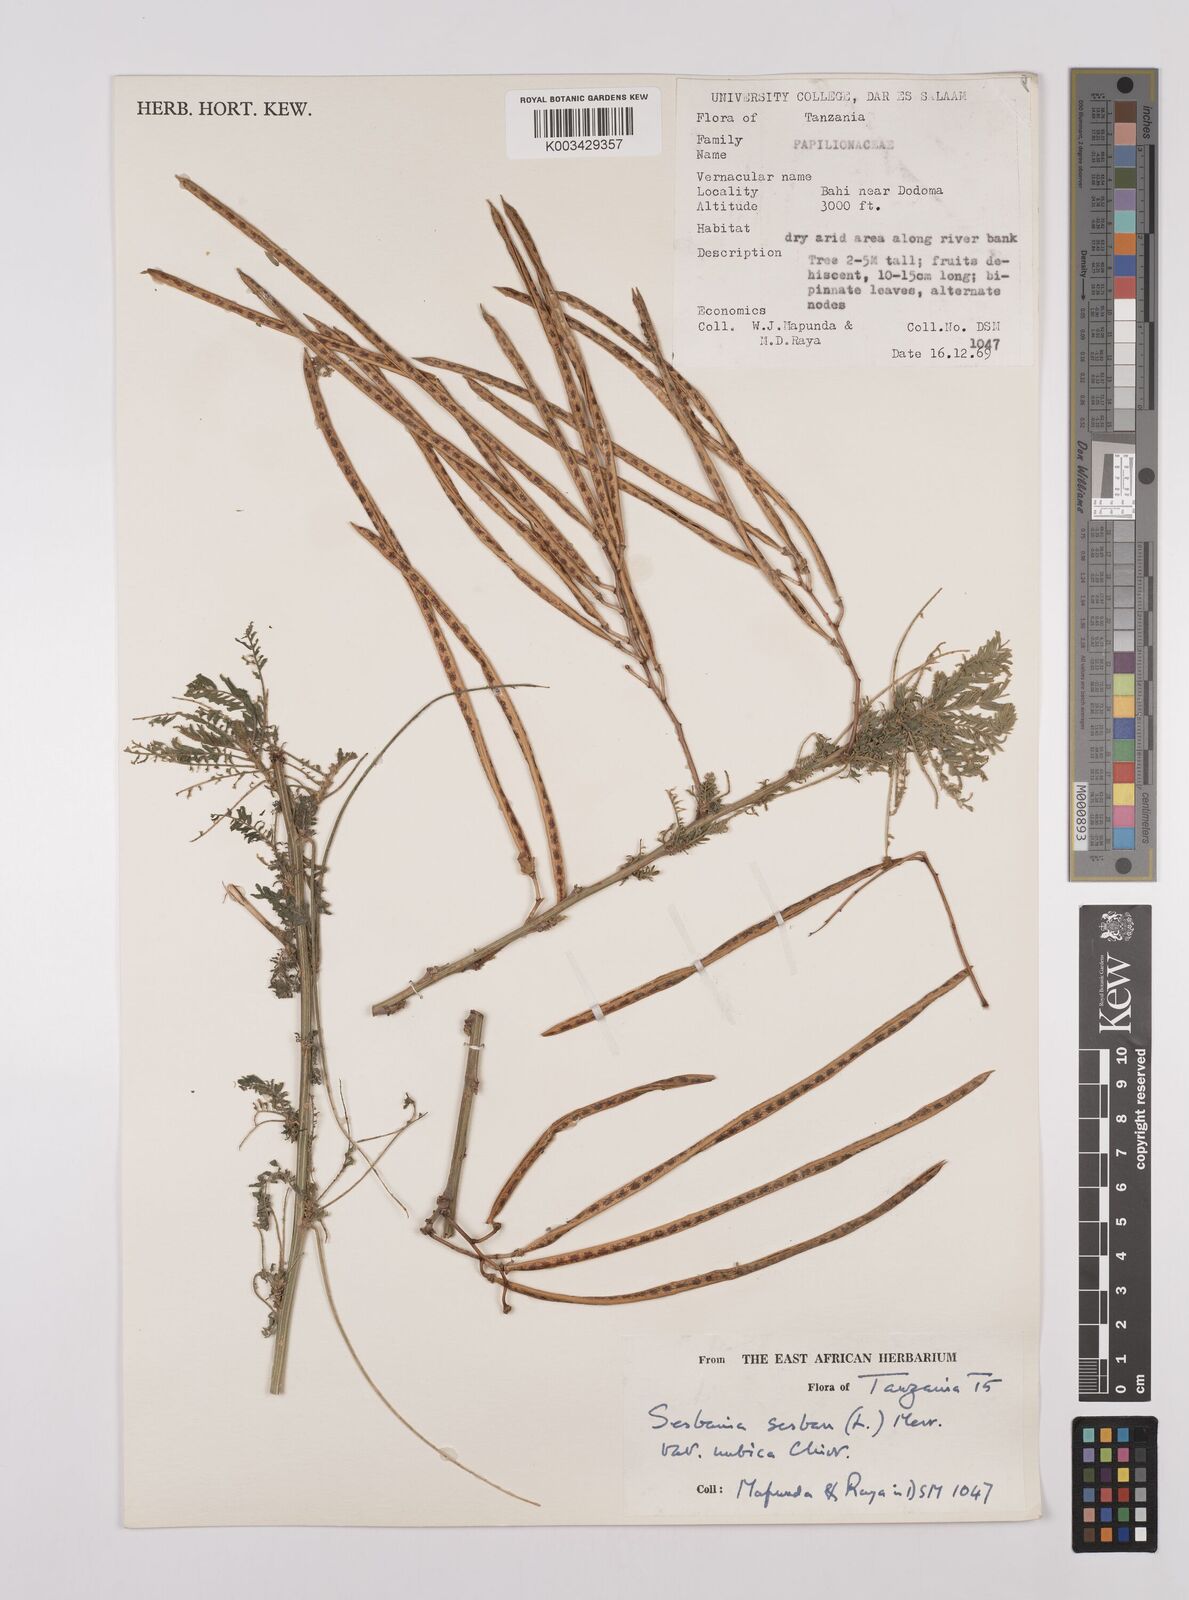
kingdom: Plantae
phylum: Tracheophyta
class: Magnoliopsida
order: Fabales
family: Fabaceae
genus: Sesbania
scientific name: Sesbania sesban
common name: Egyptian sesban
